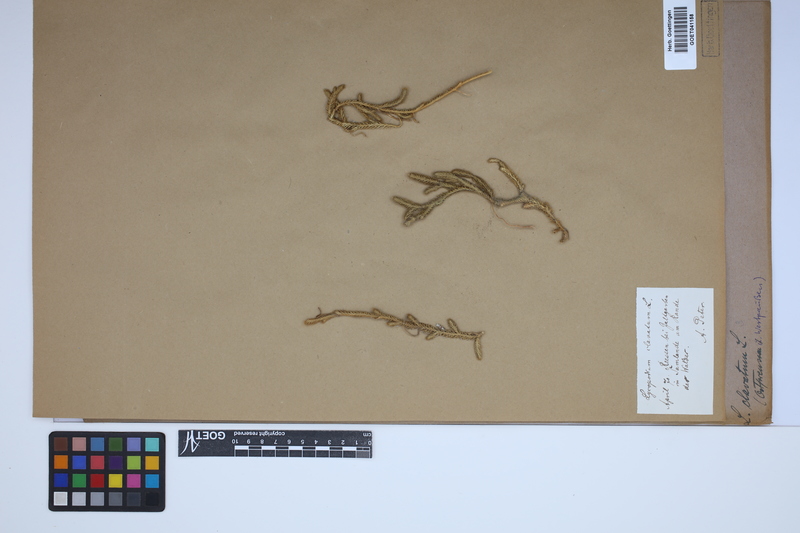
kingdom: Plantae
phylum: Tracheophyta
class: Lycopodiopsida
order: Lycopodiales
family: Lycopodiaceae
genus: Lycopodium
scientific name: Lycopodium clavatum
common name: Stag's-horn clubmoss
